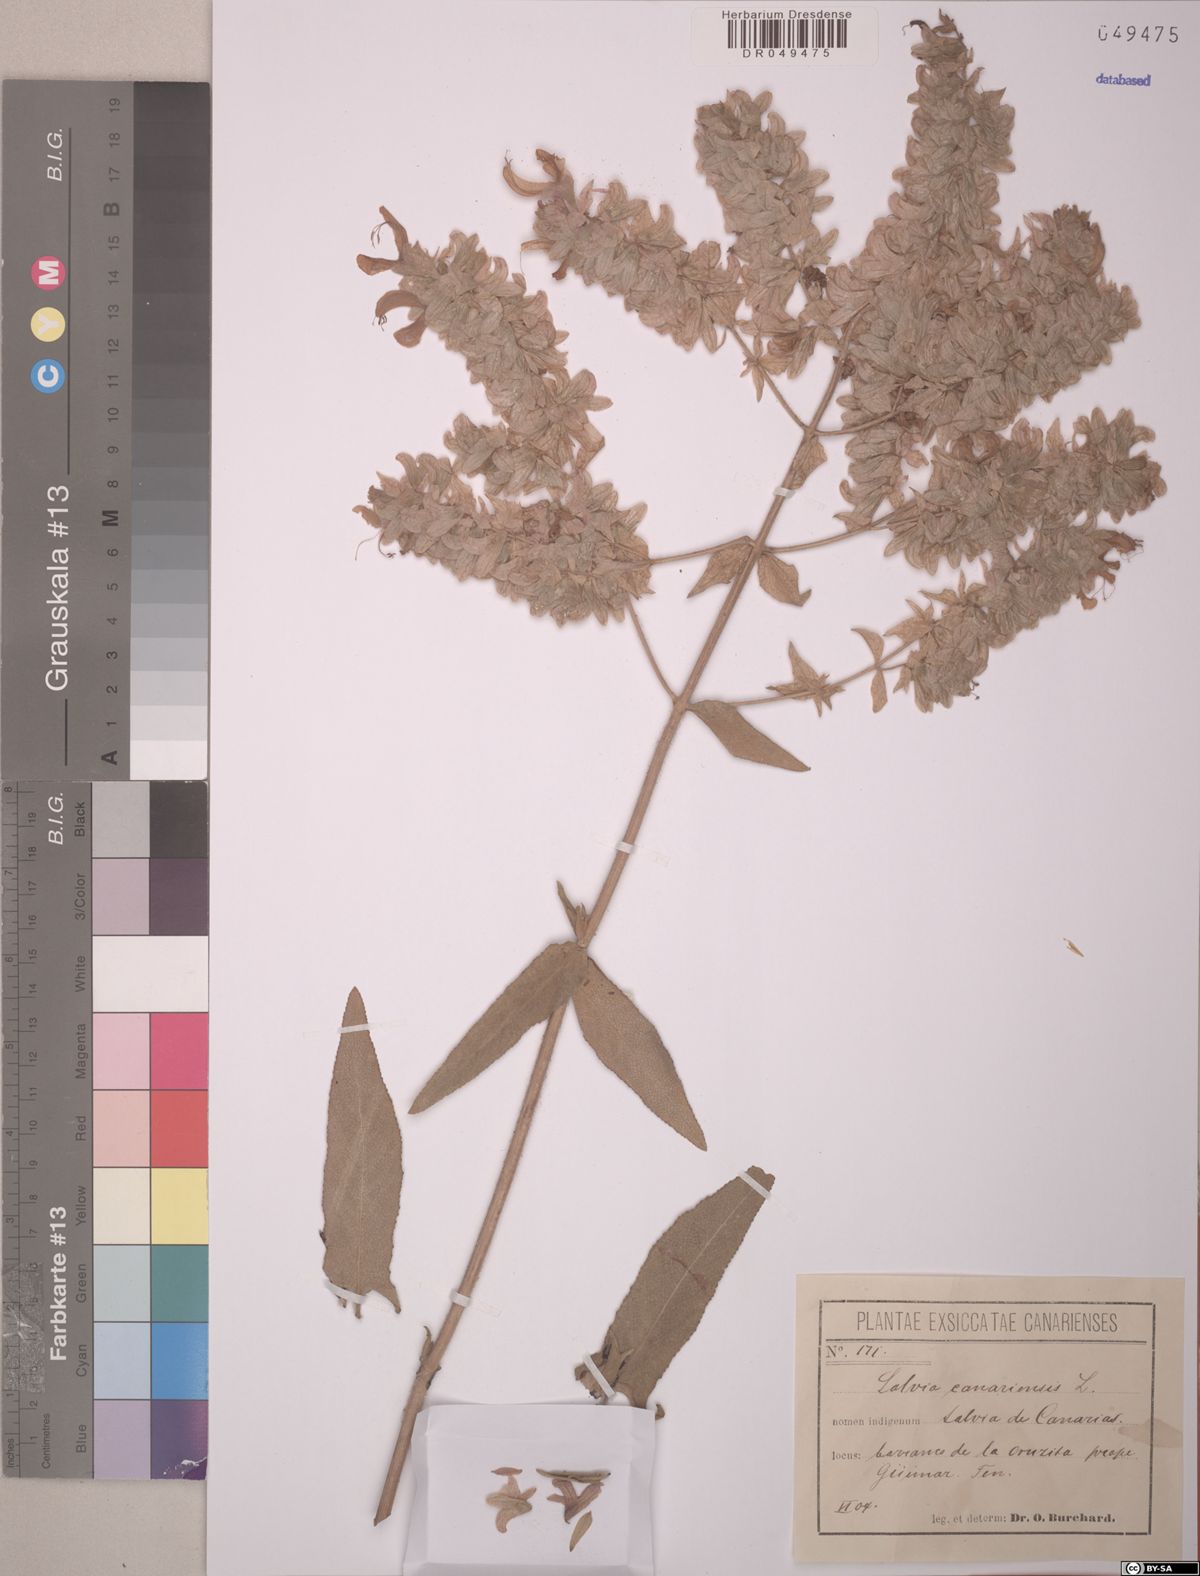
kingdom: Plantae
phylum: Tracheophyta
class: Magnoliopsida
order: Lamiales
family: Lamiaceae
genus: Salvia
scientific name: Salvia canariensis
